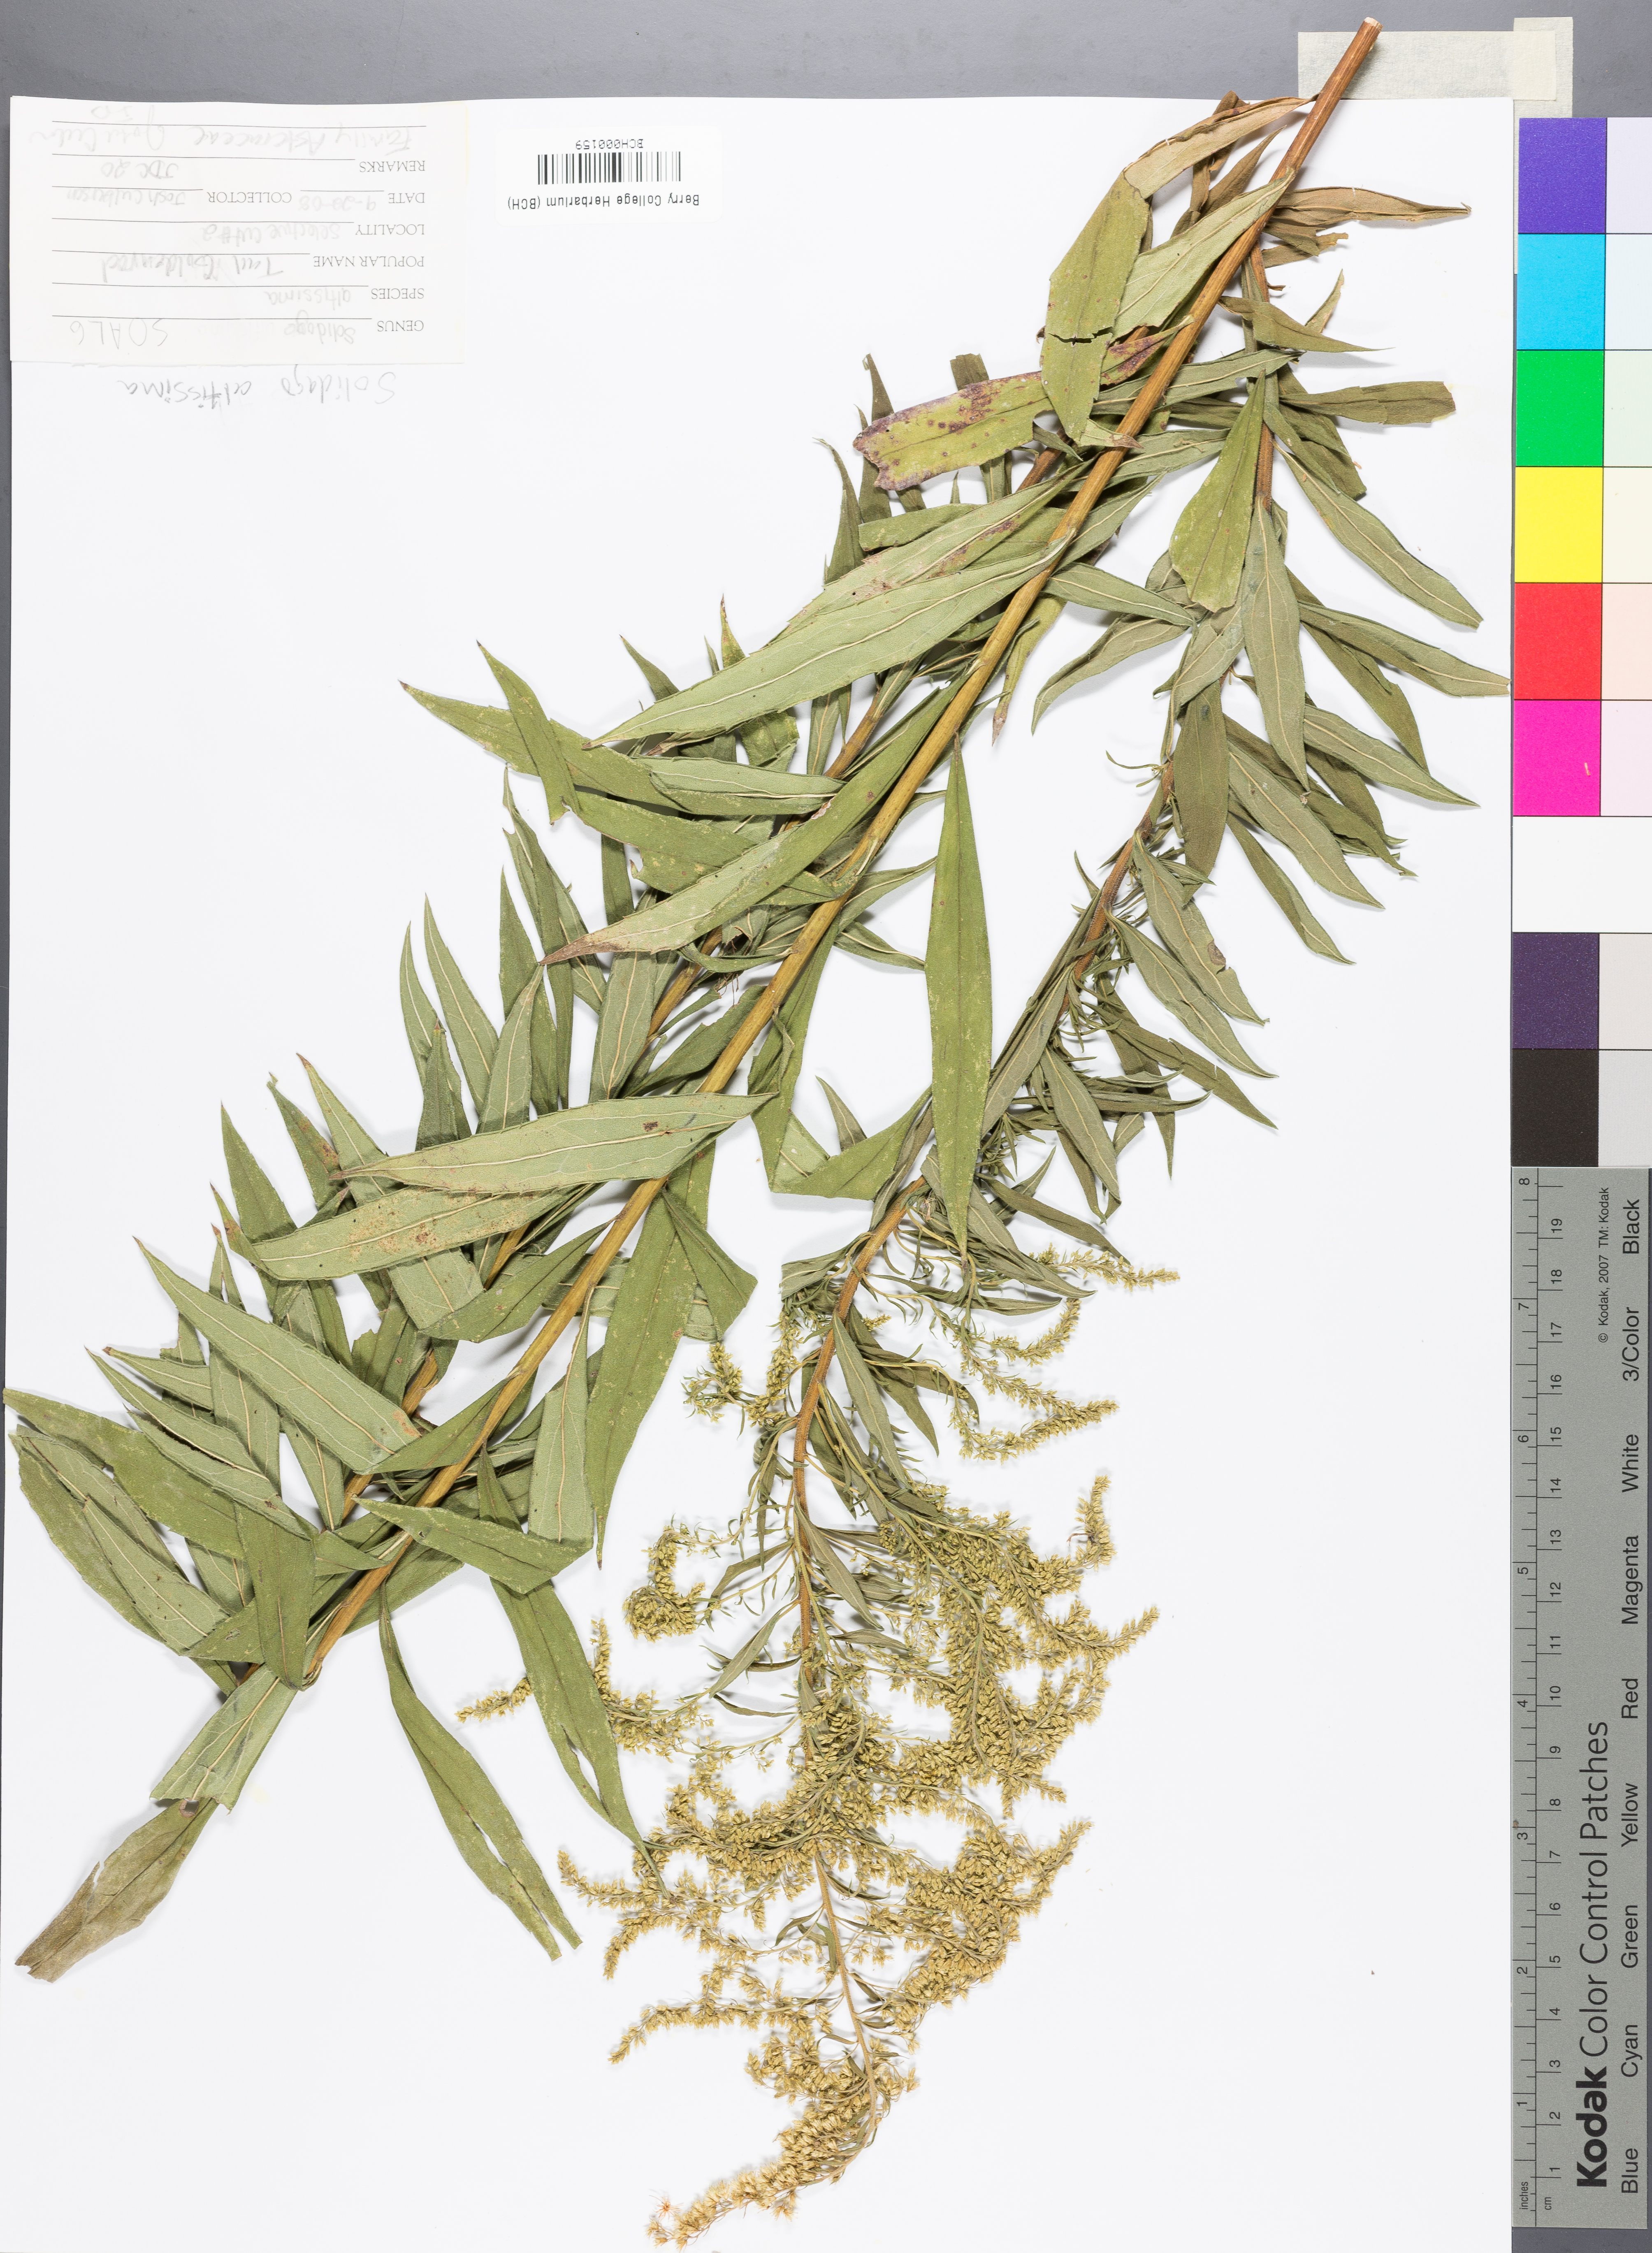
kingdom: Plantae
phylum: Tracheophyta
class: Magnoliopsida
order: Asterales
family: Asteraceae
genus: Solidago
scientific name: Solidago altissima
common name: Late goldenrod
